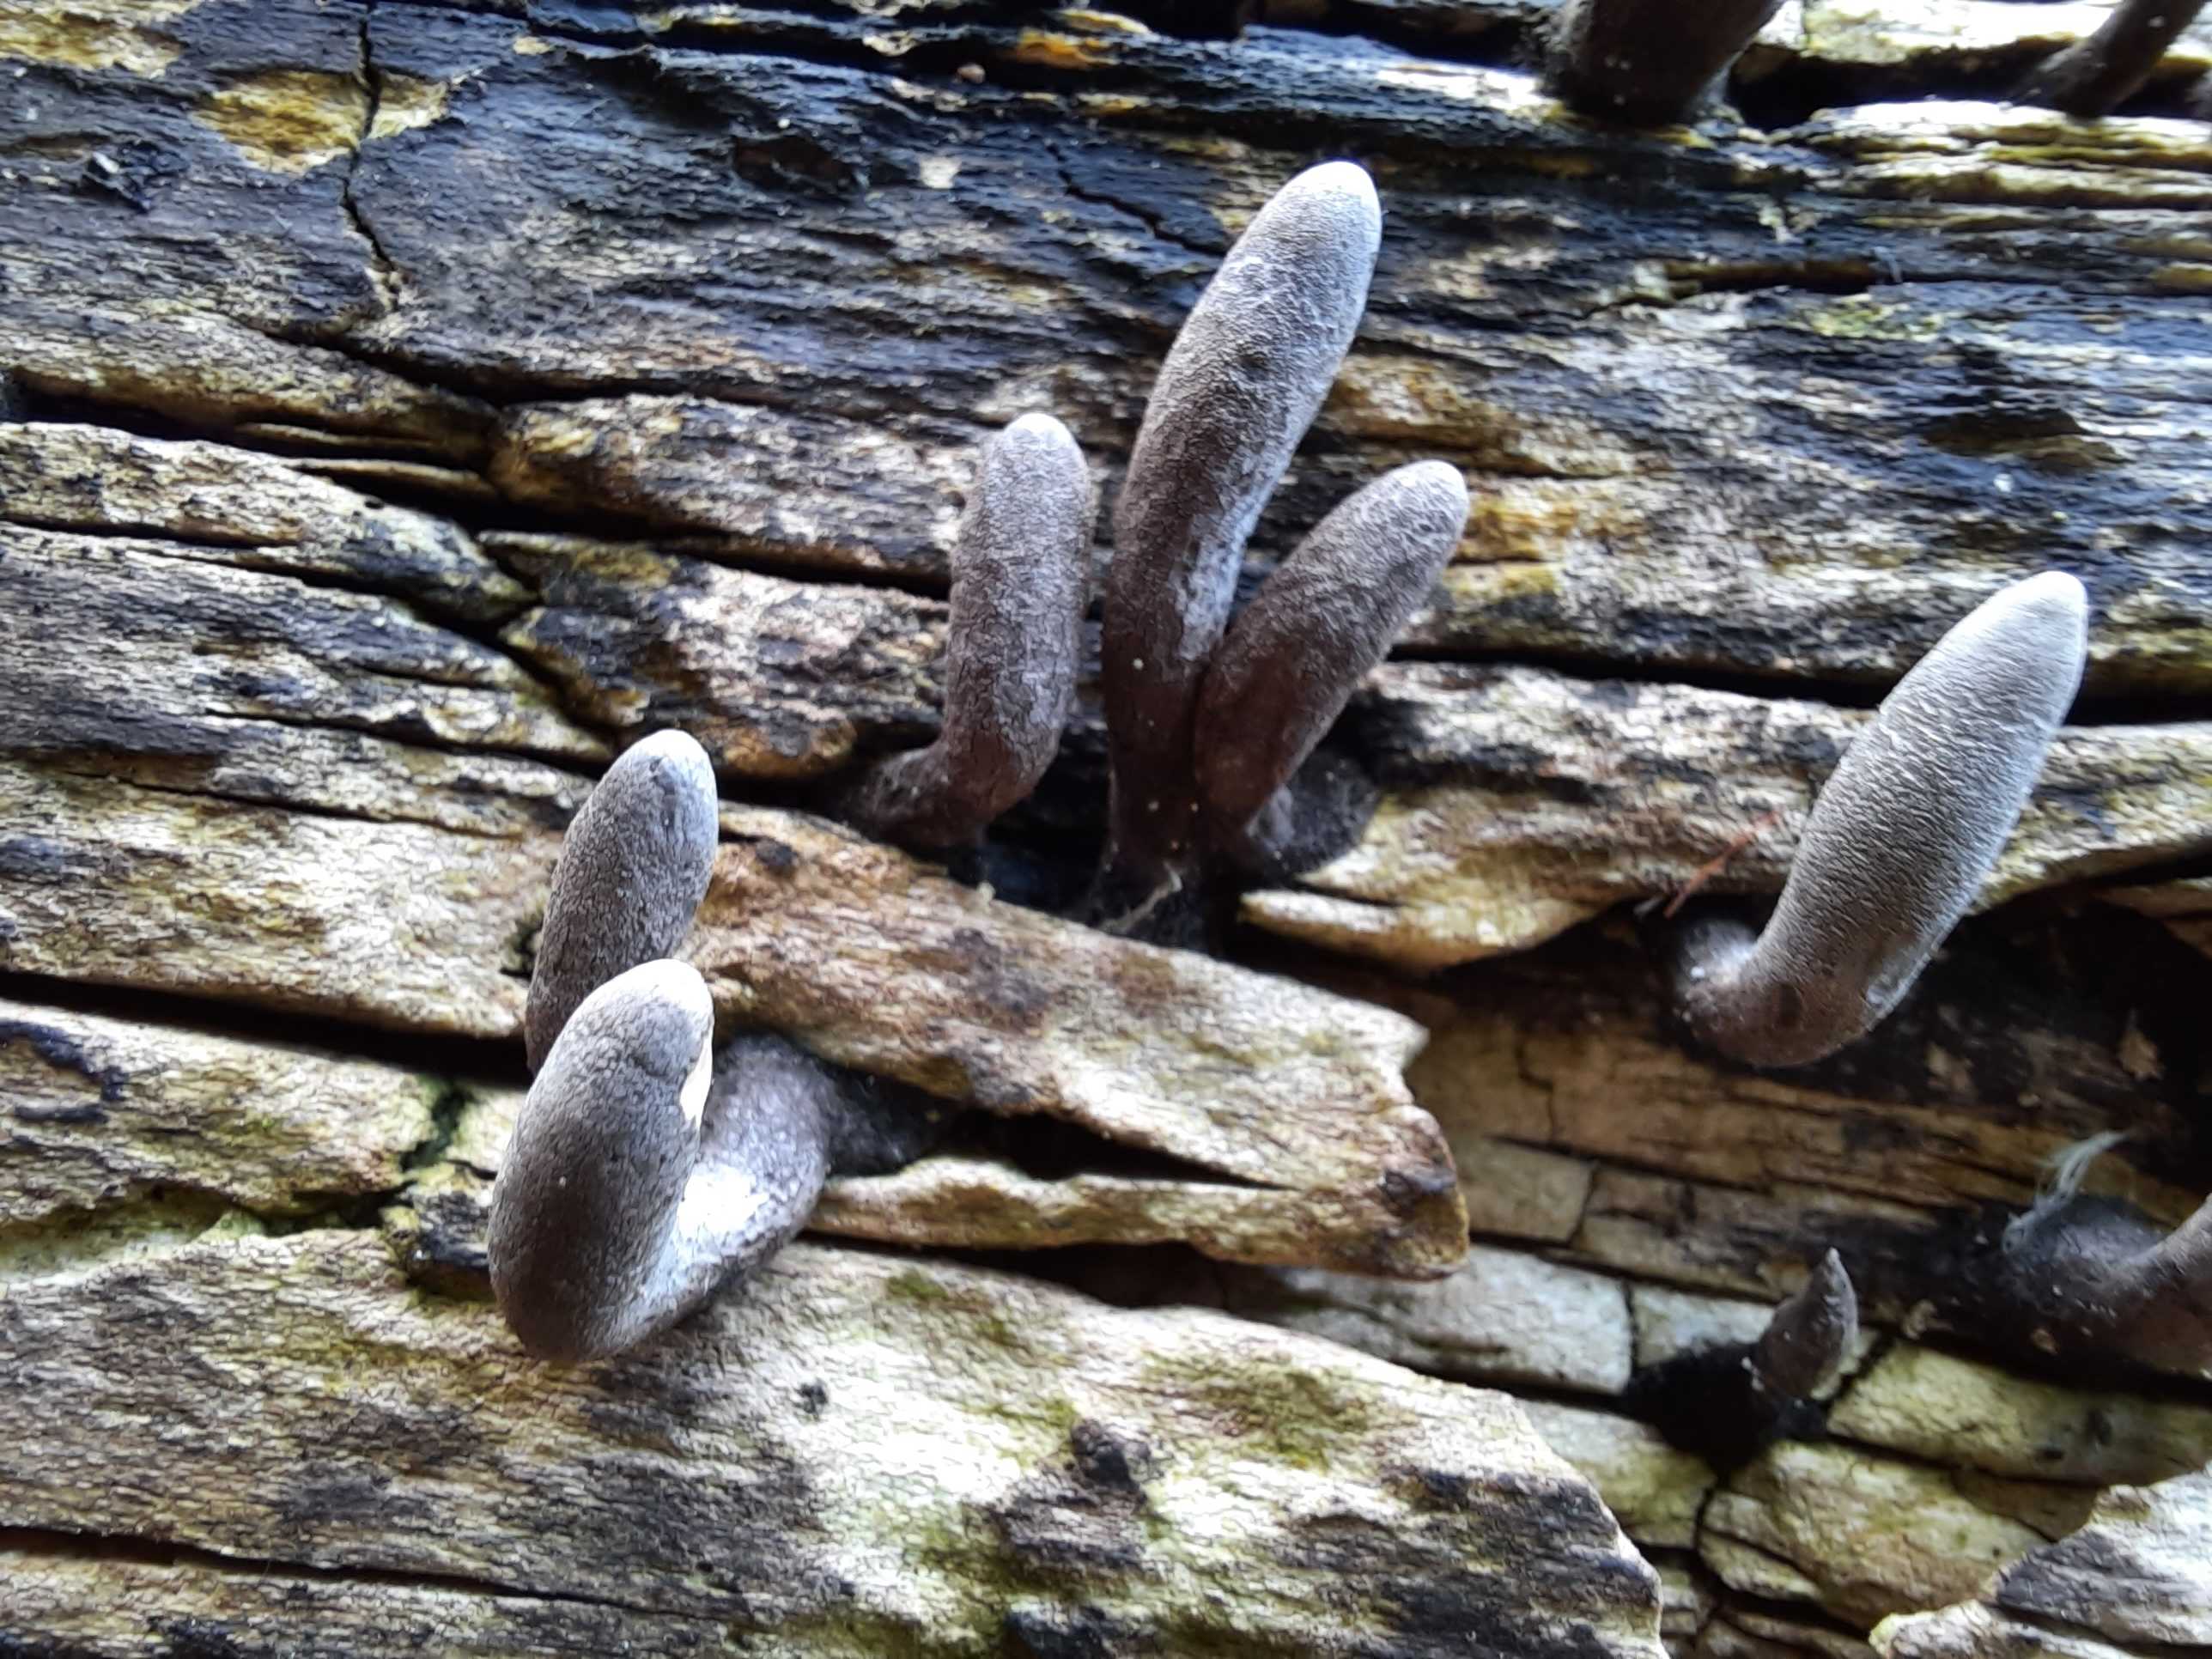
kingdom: Fungi
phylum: Ascomycota
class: Sordariomycetes
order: Xylariales
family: Xylariaceae
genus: Xylaria
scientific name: Xylaria
